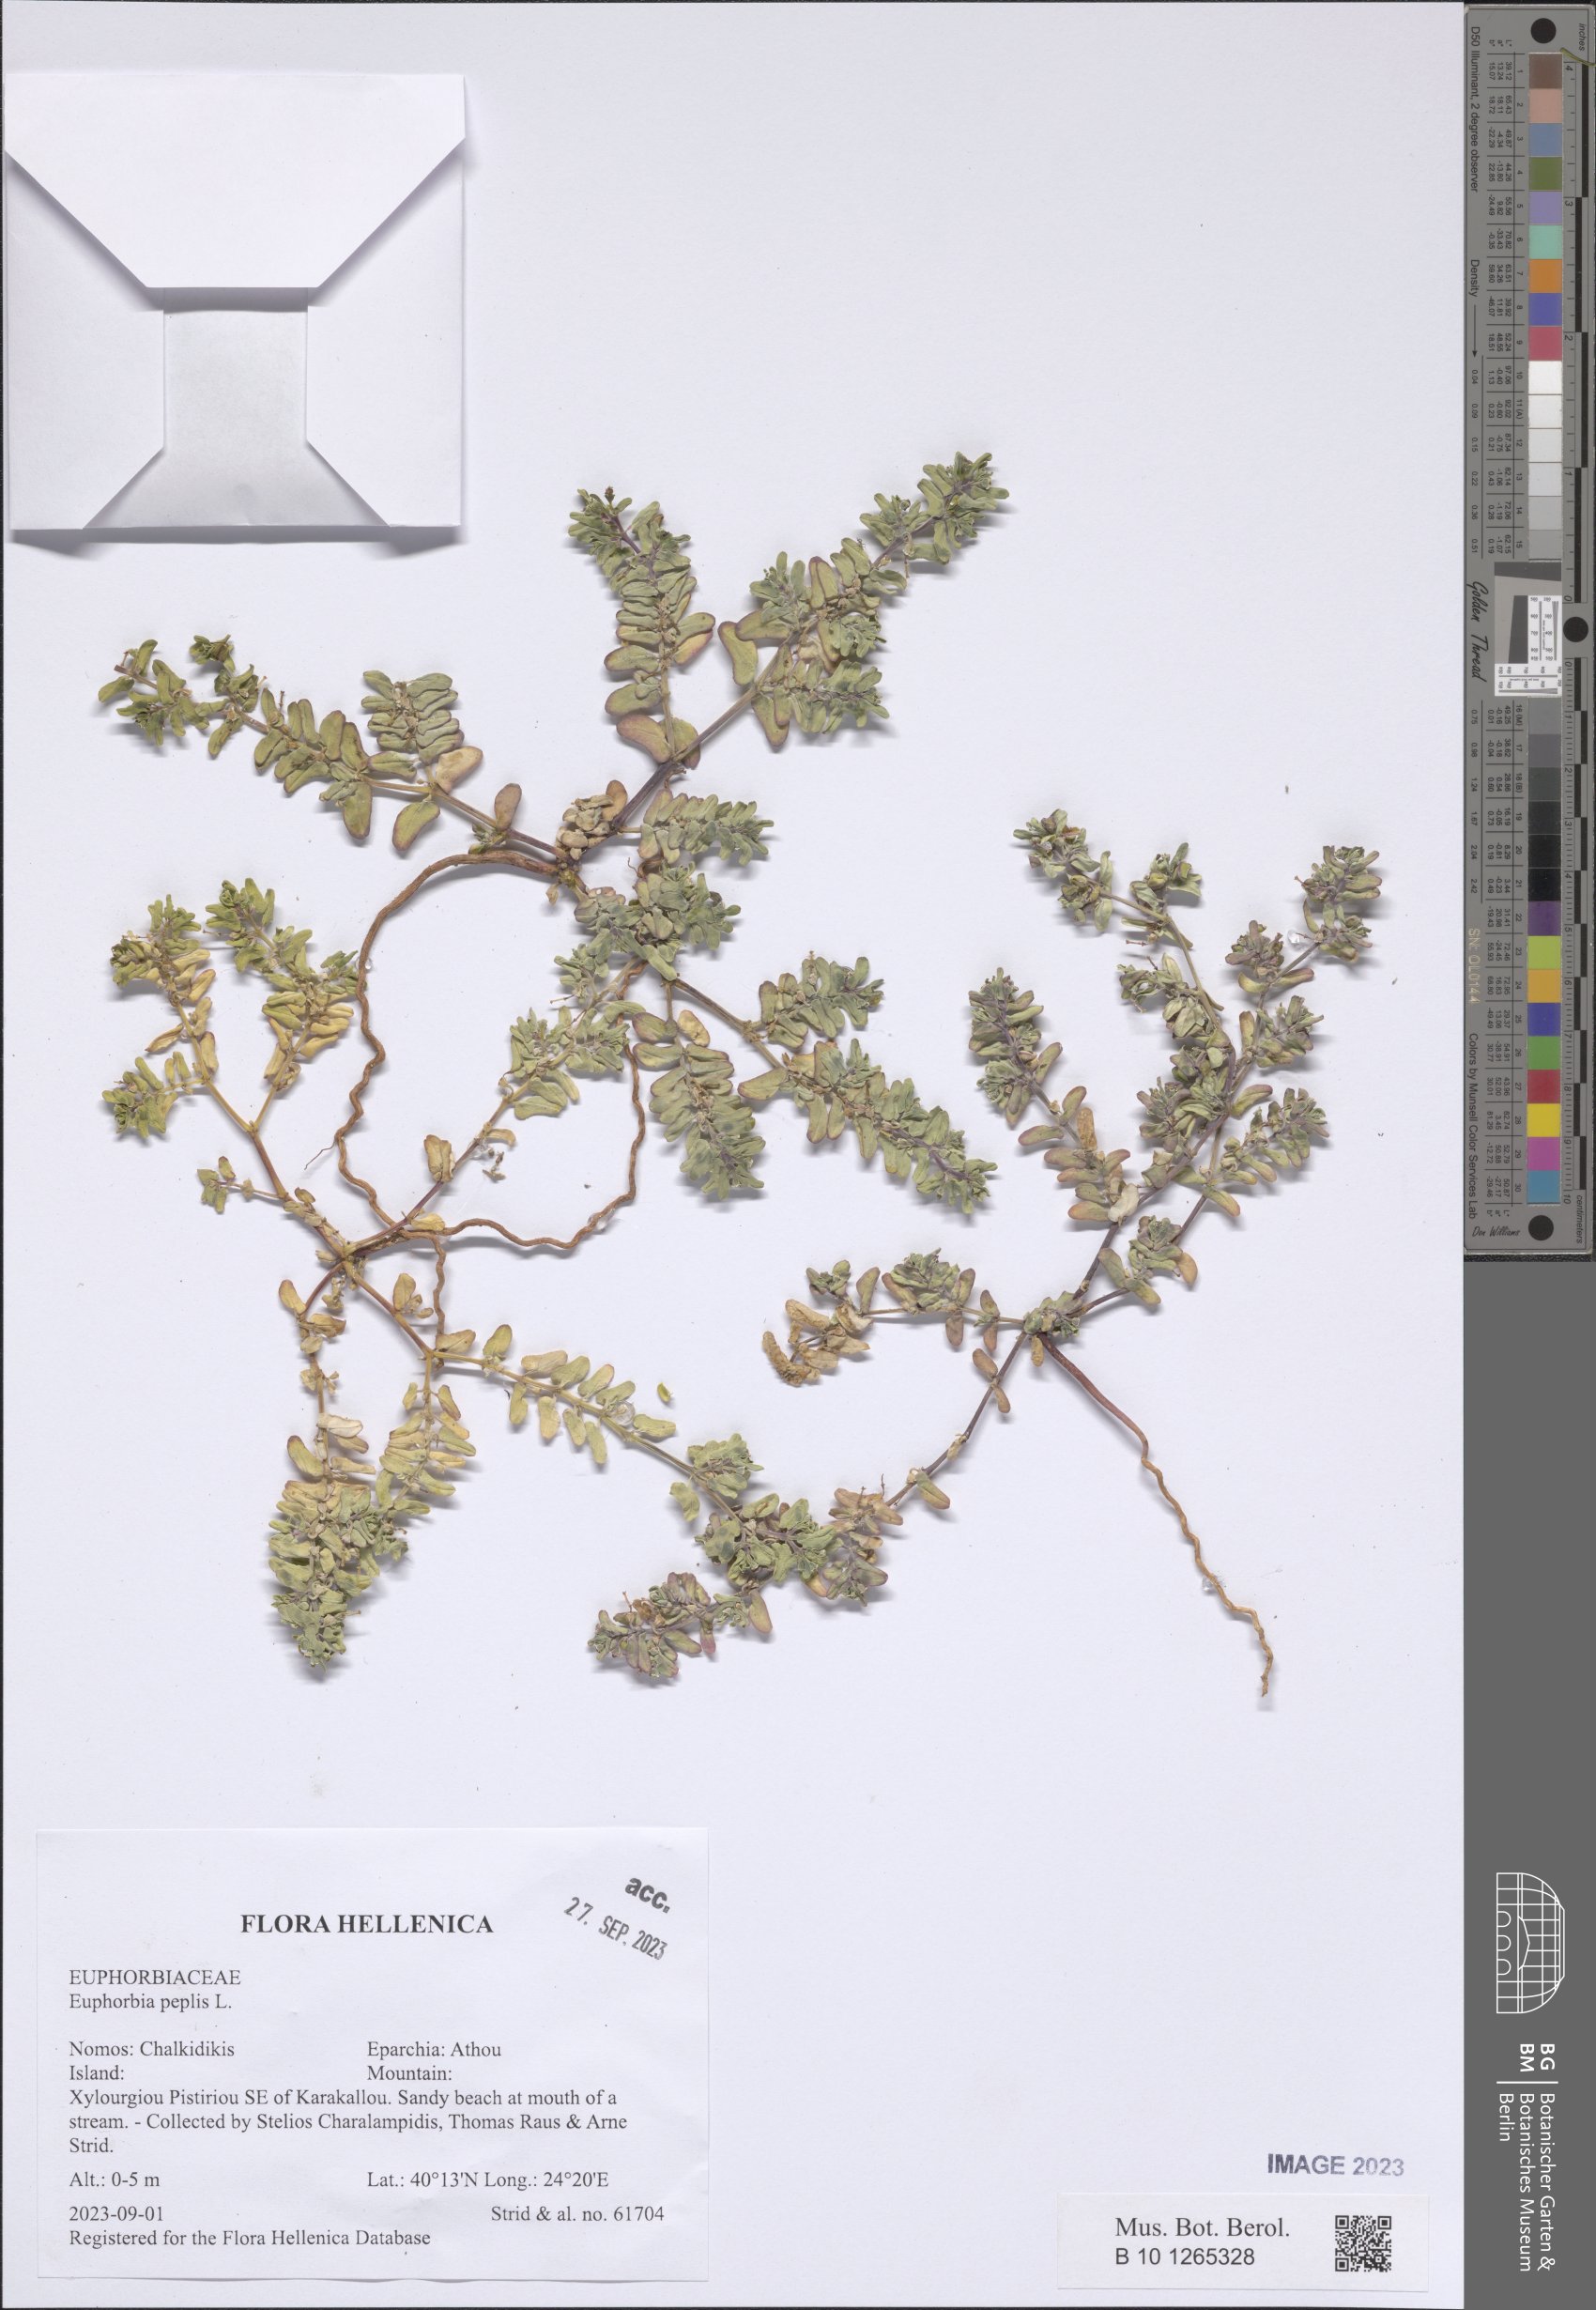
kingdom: Plantae
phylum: Tracheophyta
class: Magnoliopsida
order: Malpighiales
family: Euphorbiaceae
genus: Euphorbia
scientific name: Euphorbia peplis
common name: Purple spurge
